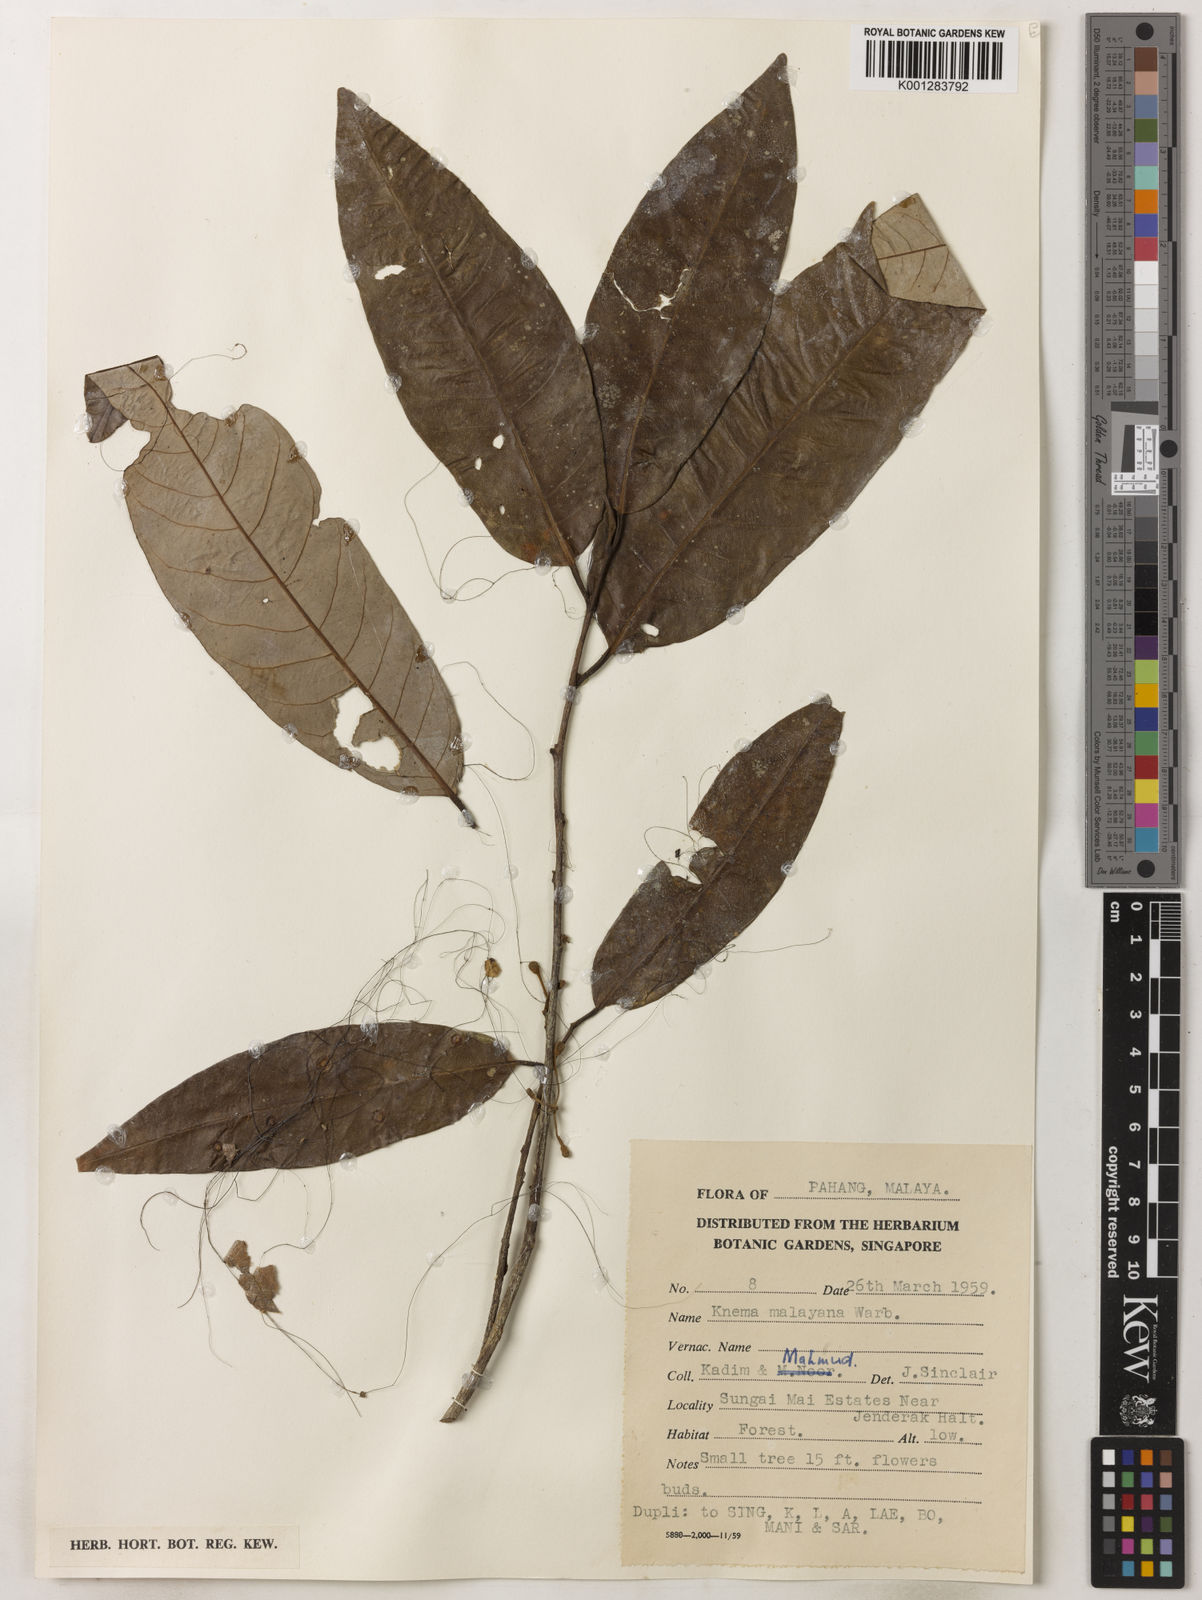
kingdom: Plantae
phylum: Tracheophyta
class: Magnoliopsida
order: Magnoliales
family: Myristicaceae
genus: Knema
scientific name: Knema malayana
